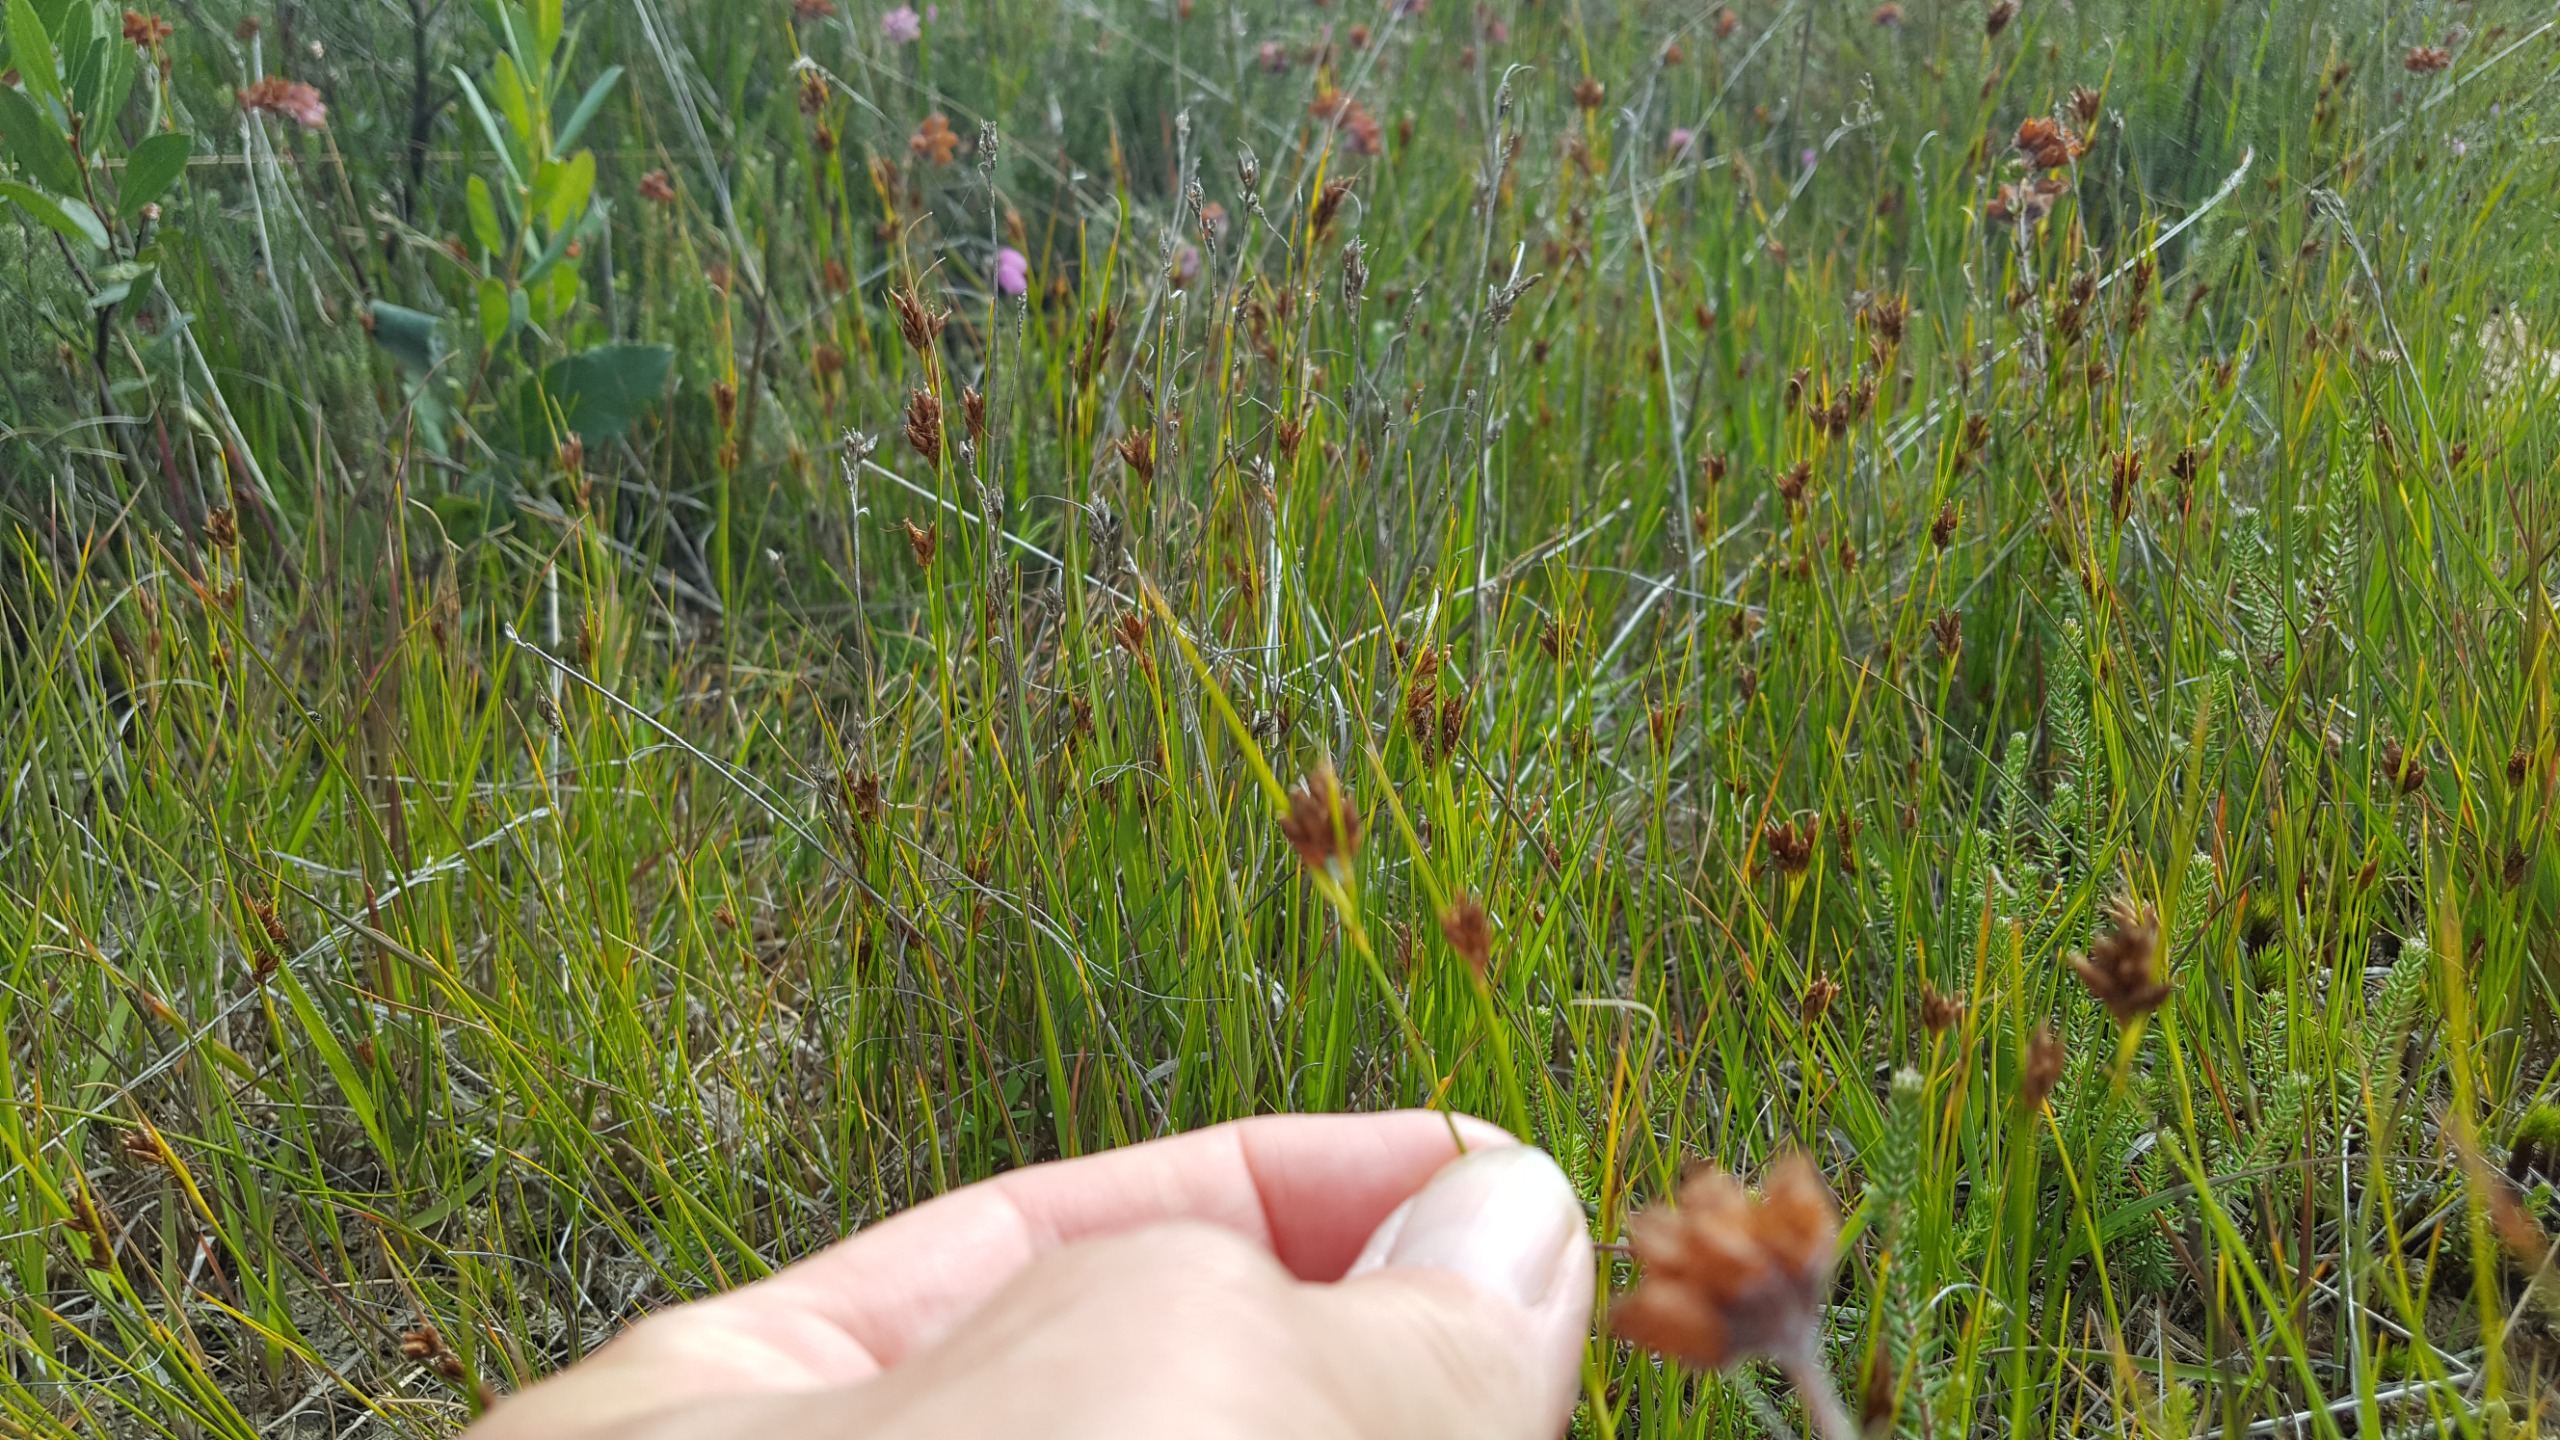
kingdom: Plantae
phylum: Tracheophyta
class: Liliopsida
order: Poales
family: Cyperaceae
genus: Rhynchospora
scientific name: Rhynchospora fusca
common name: Brun næbfrø
